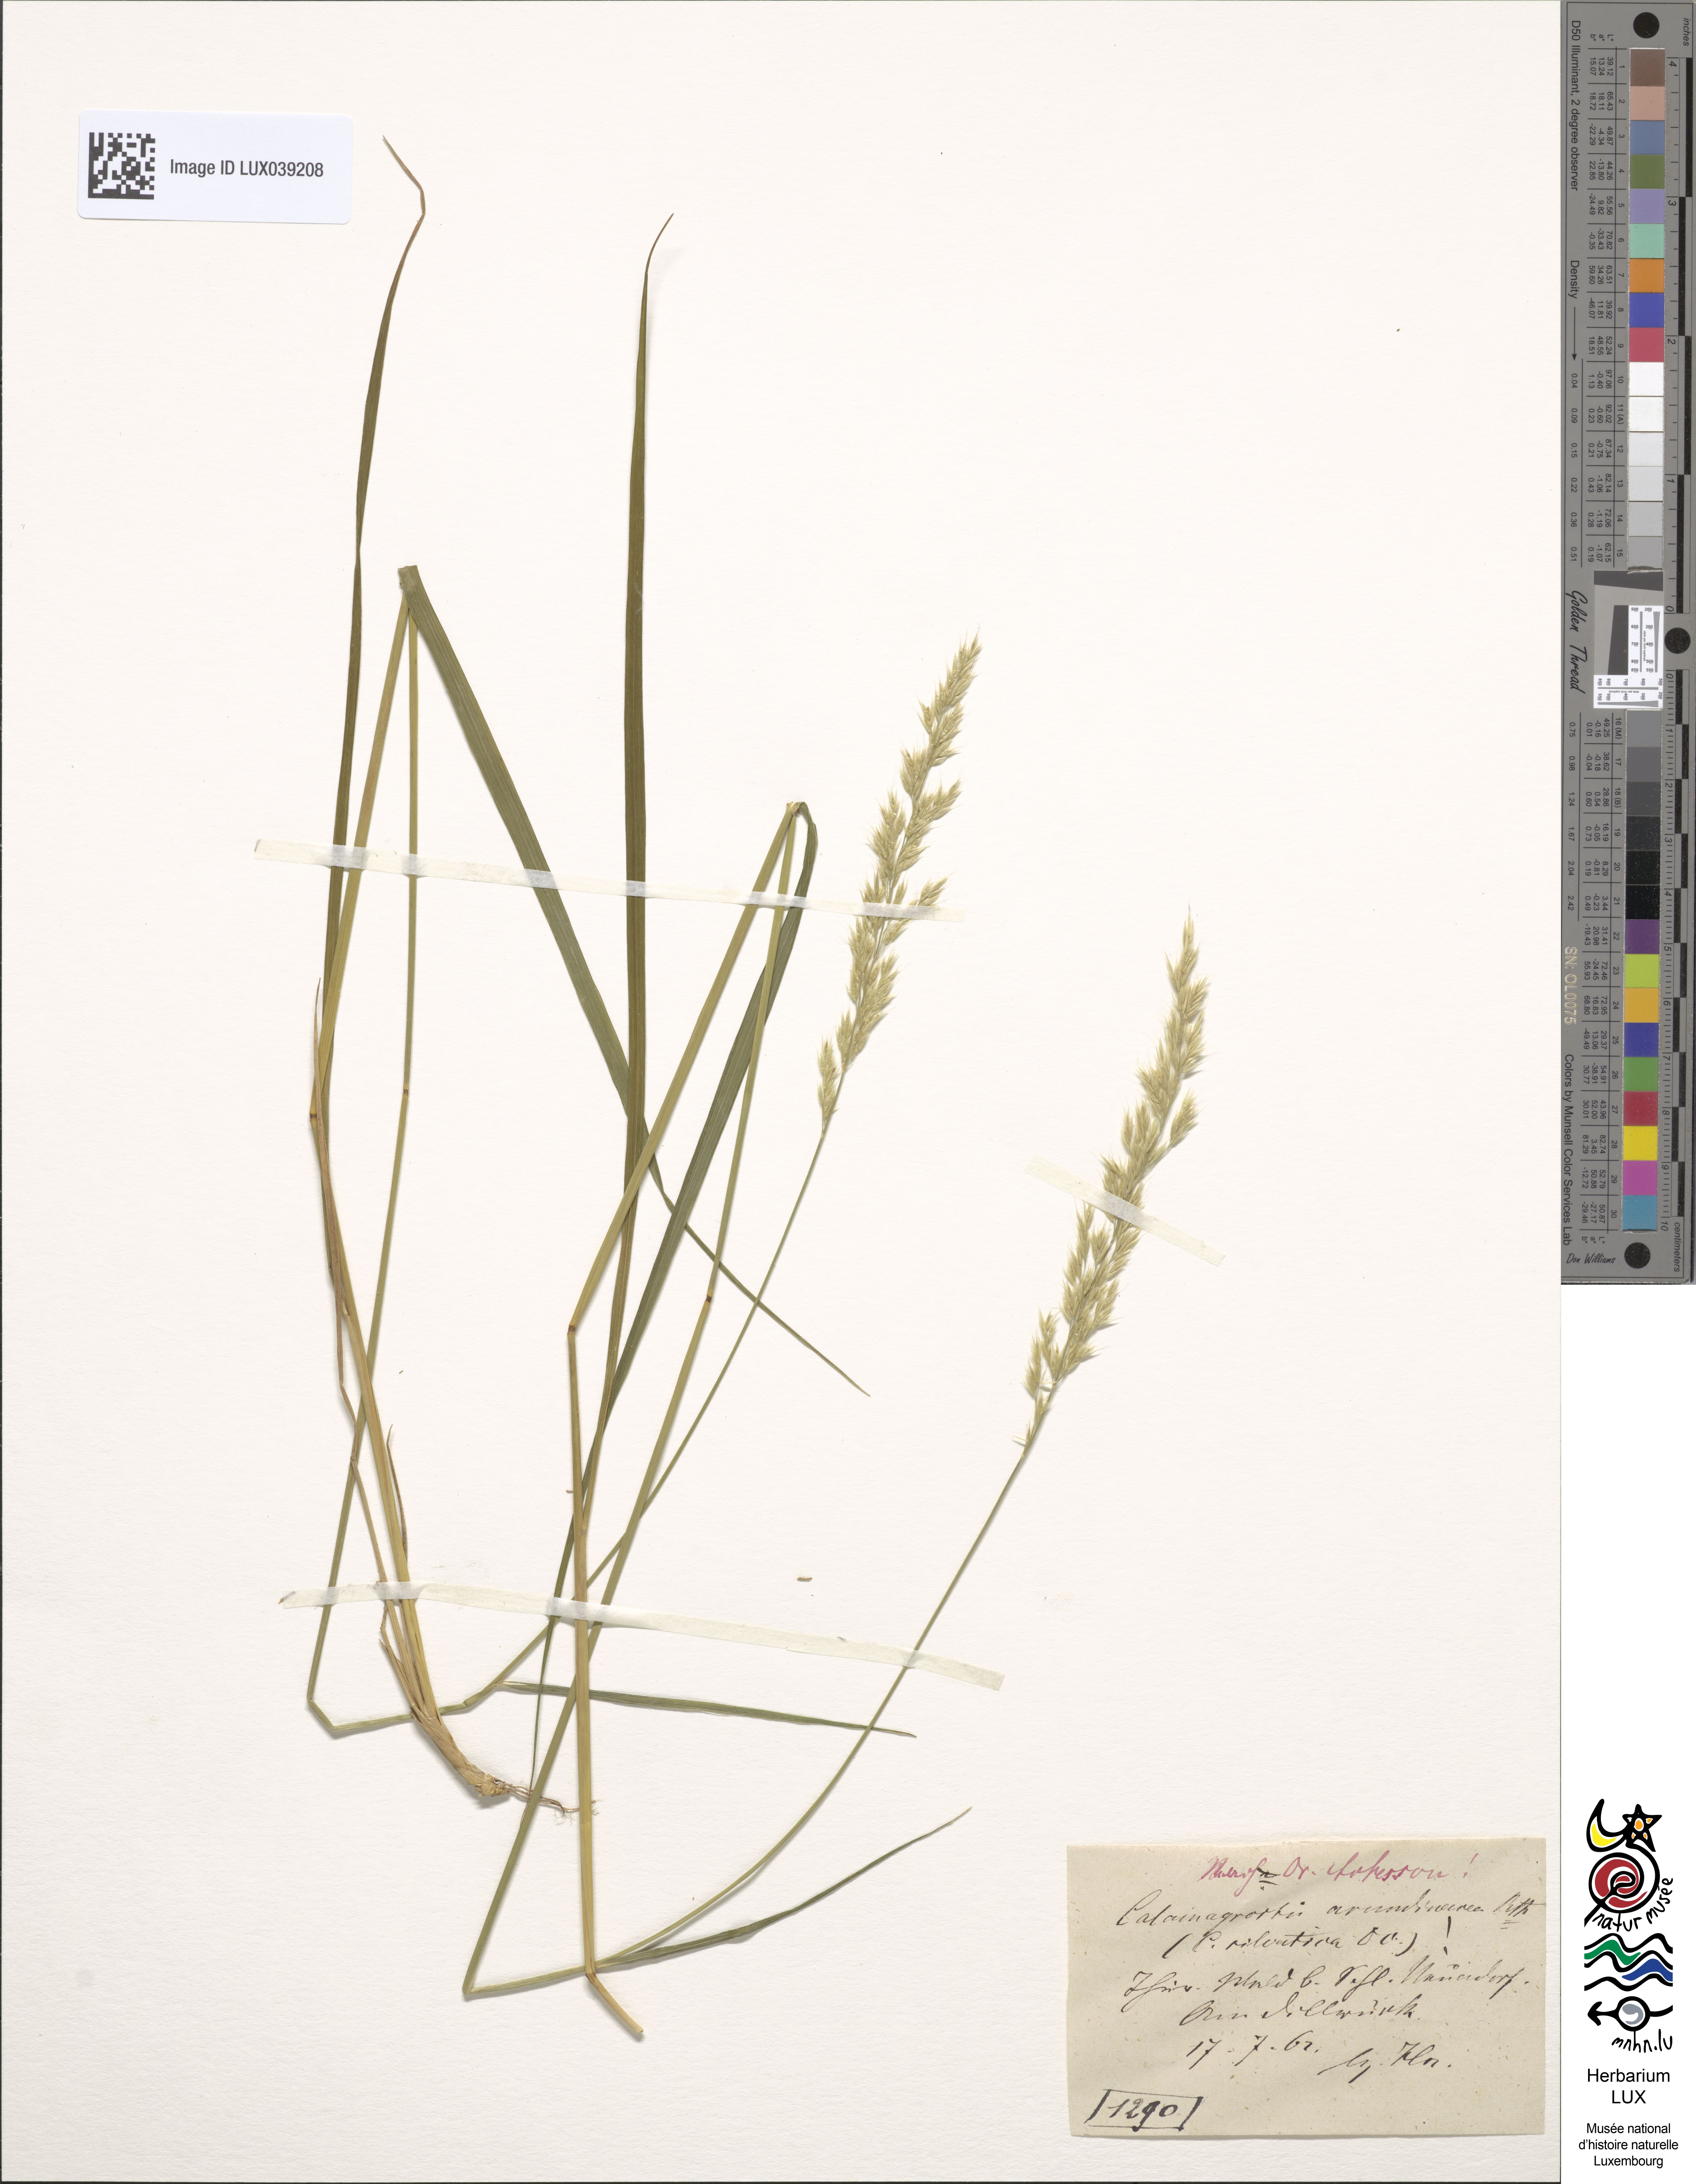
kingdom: Plantae
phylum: Tracheophyta
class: Liliopsida
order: Poales
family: Poaceae
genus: Calamagrostis
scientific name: Calamagrostis arundinacea
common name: Metskastik
